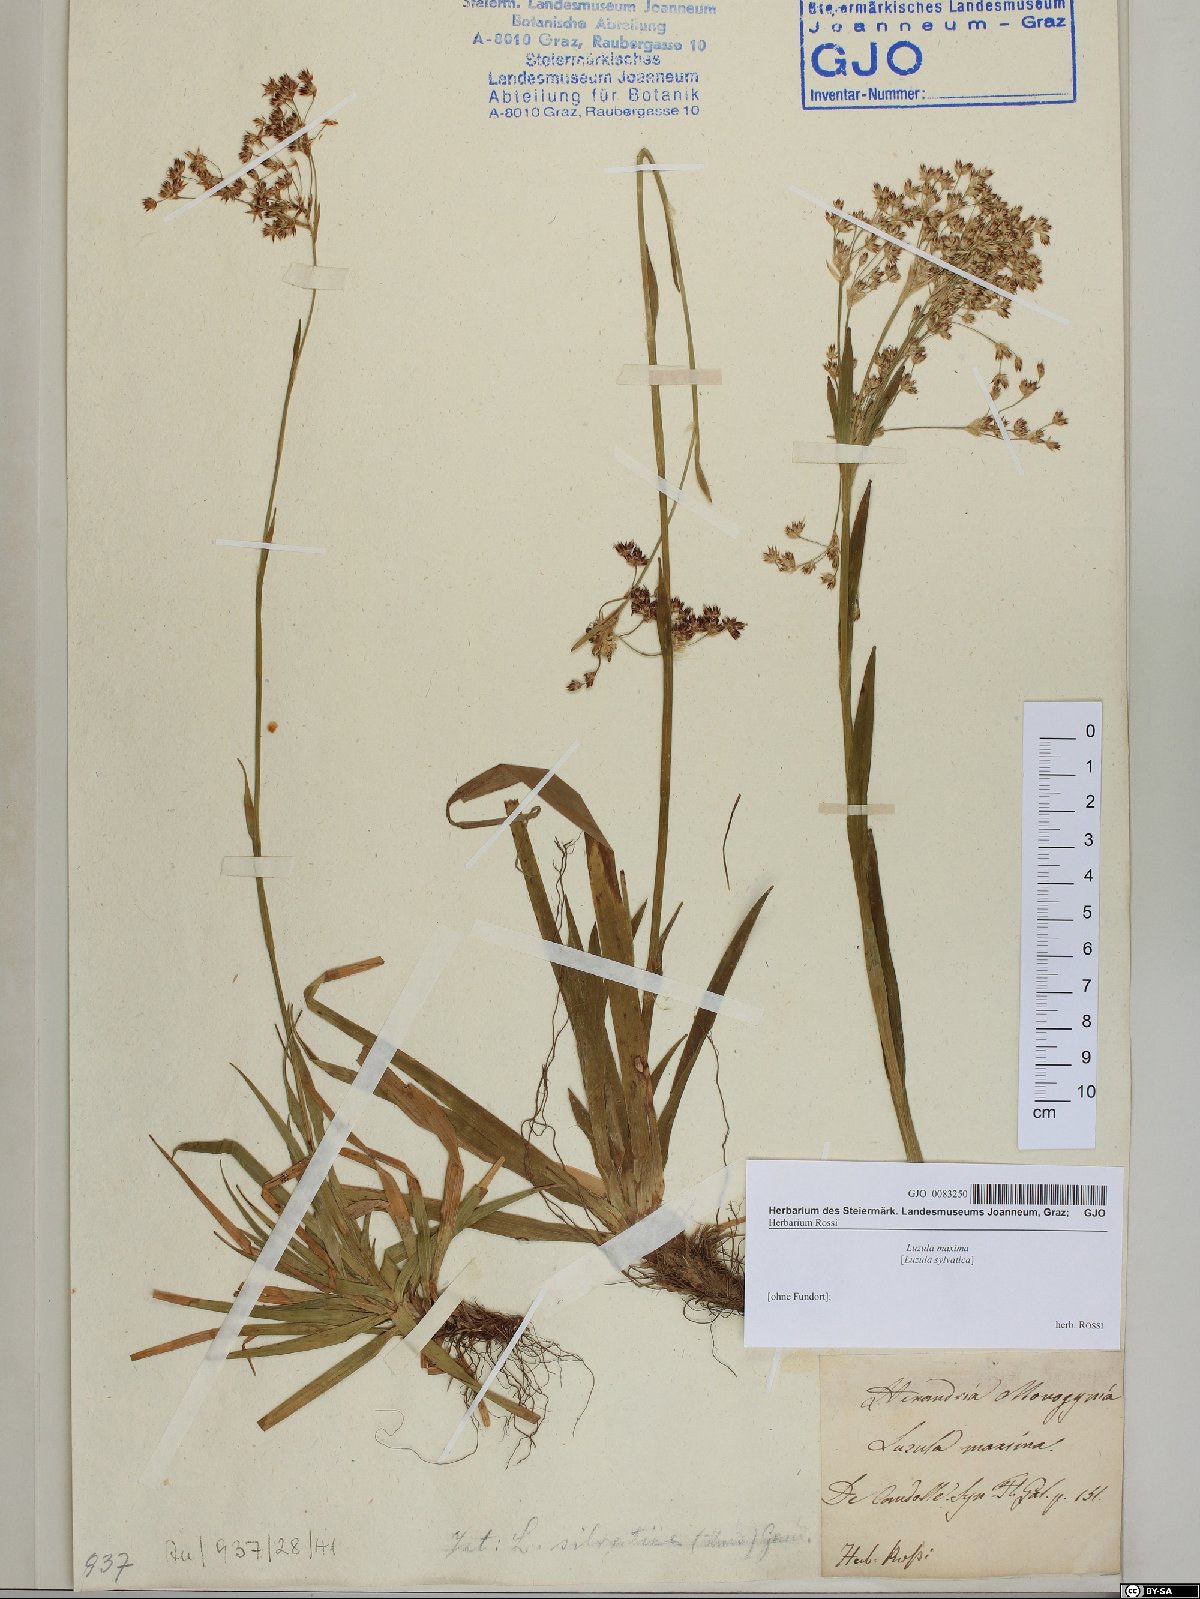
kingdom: Plantae
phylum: Tracheophyta
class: Liliopsida
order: Poales
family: Juncaceae
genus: Luzula
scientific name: Luzula sylvatica
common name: Great wood-rush
